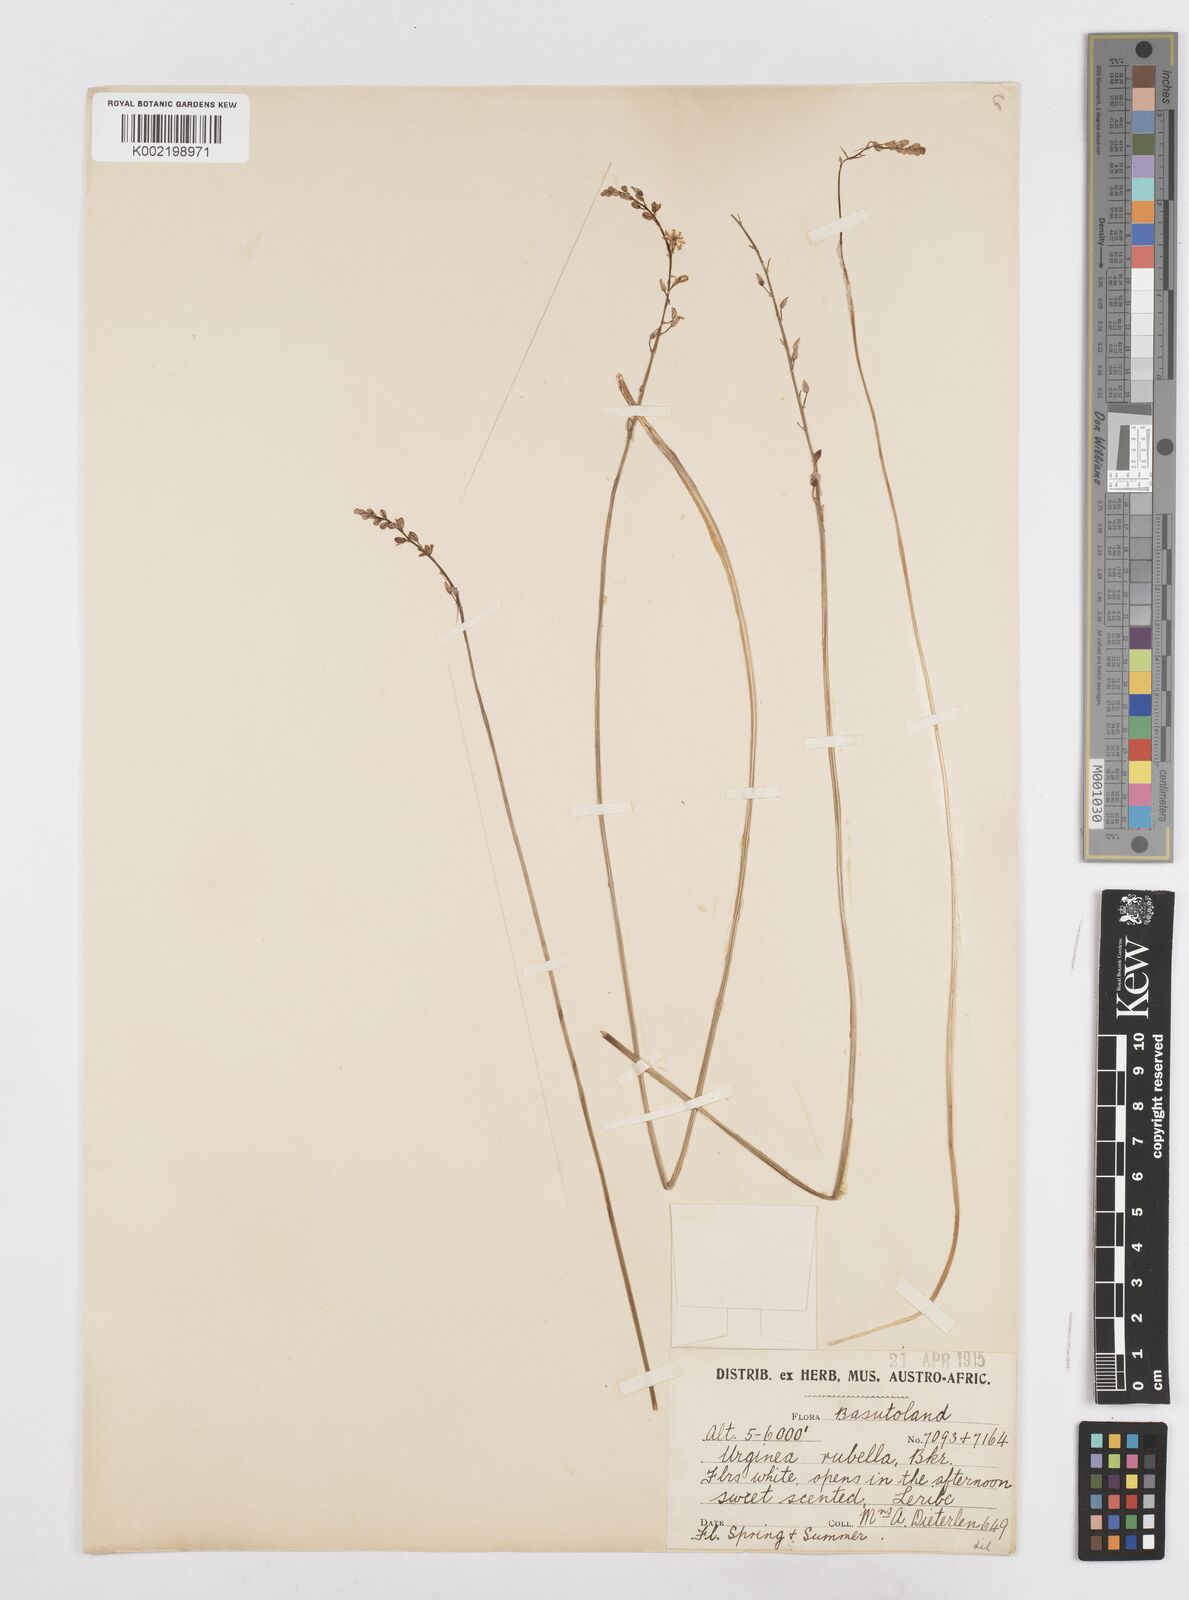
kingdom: Plantae
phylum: Tracheophyta
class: Liliopsida
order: Asparagales
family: Asparagaceae
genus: Drimia
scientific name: Drimia
